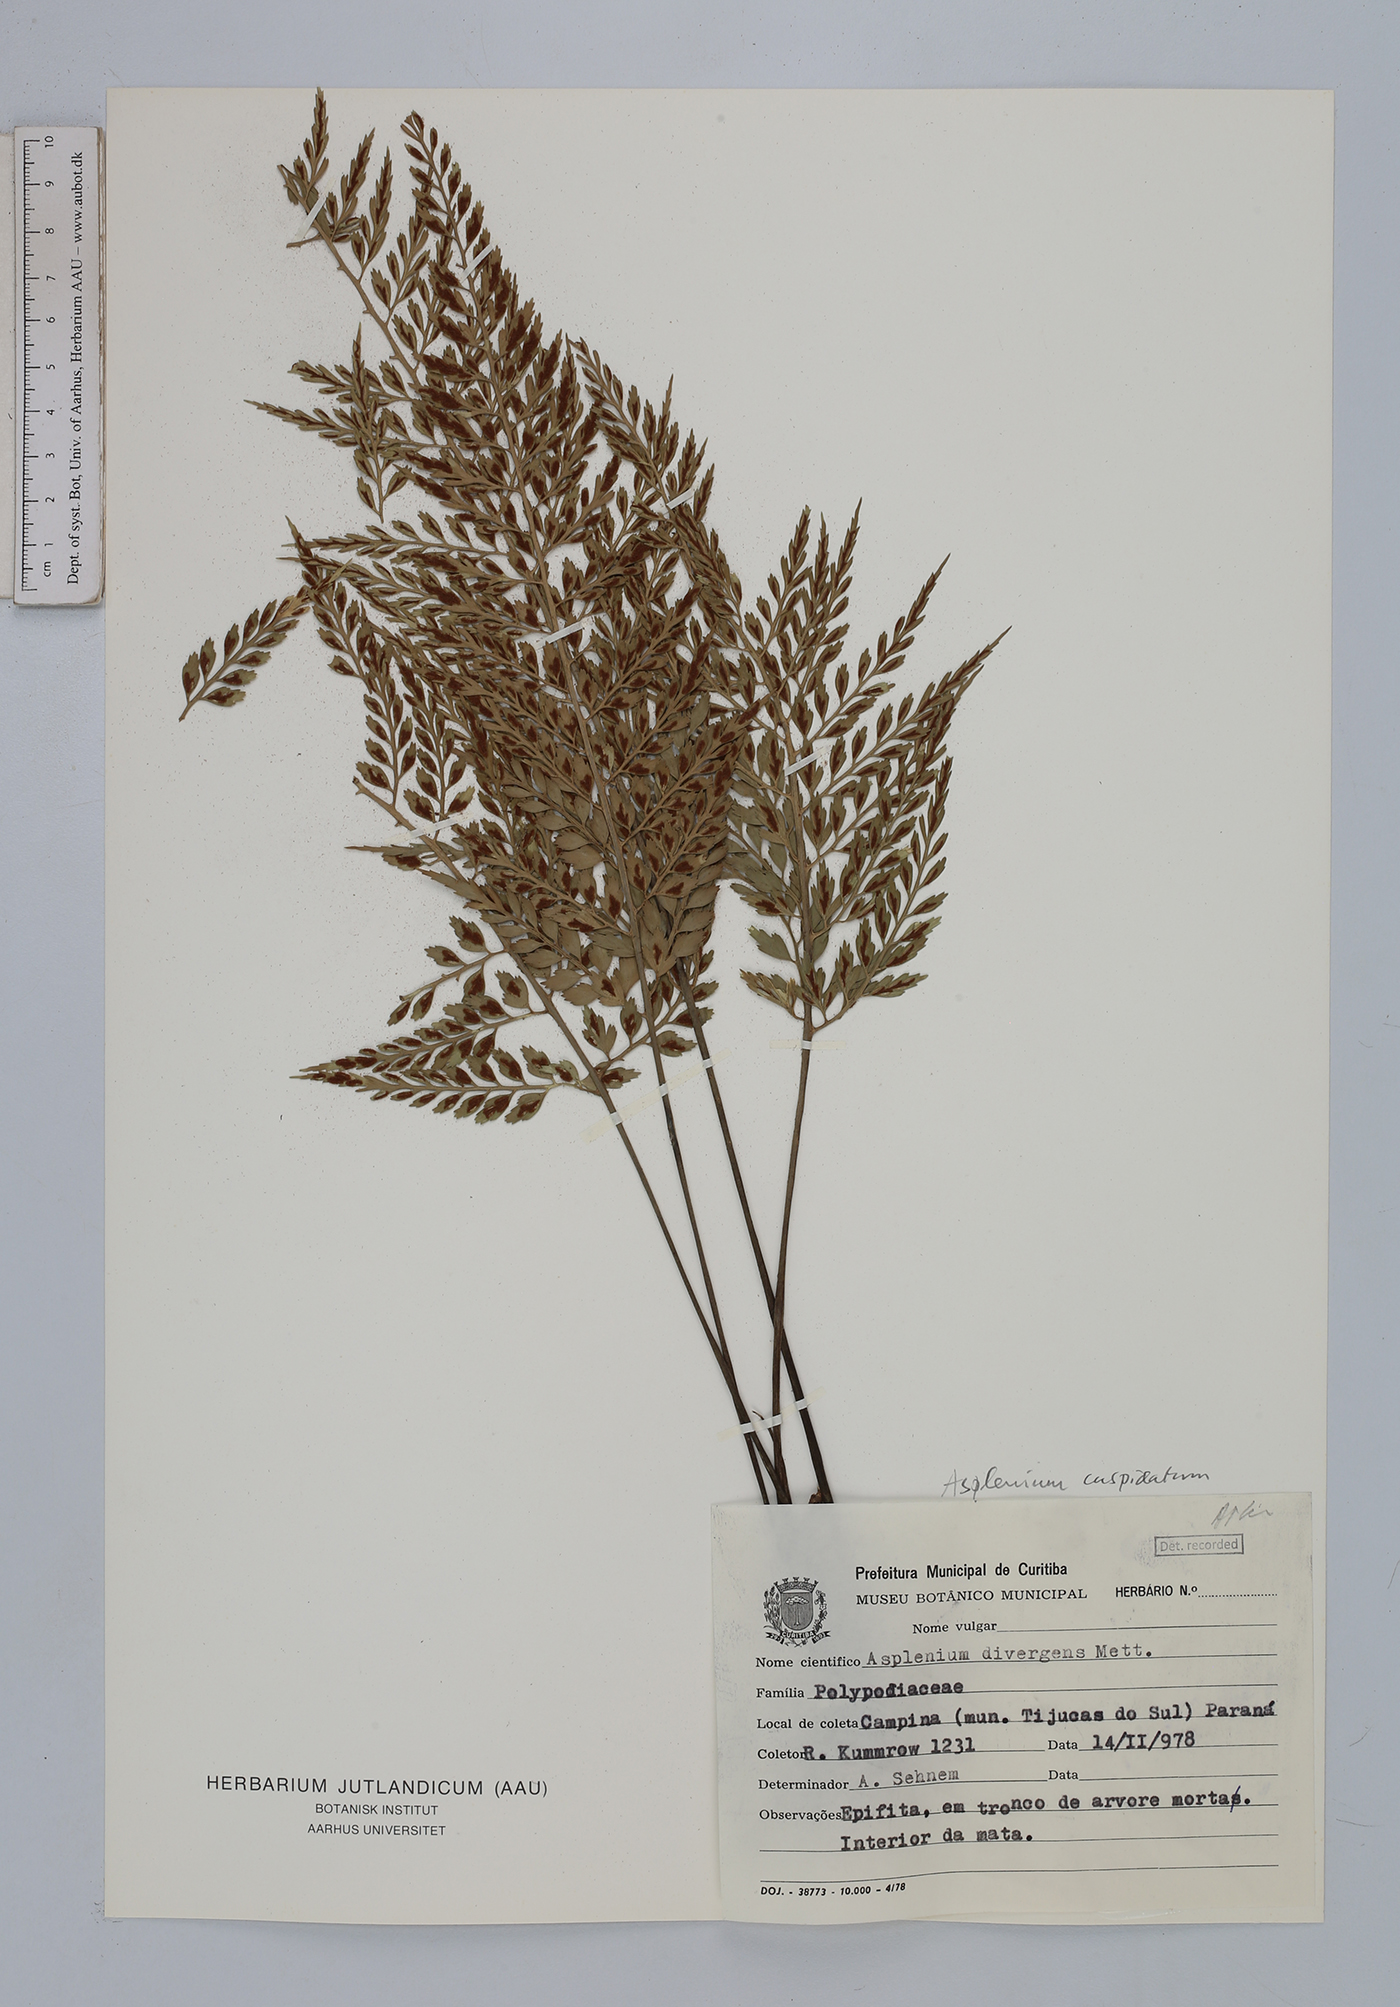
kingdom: Plantae
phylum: Tracheophyta
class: Polypodiopsida
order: Polypodiales
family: Aspleniaceae
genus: Asplenium
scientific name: Asplenium cuspidatum
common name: Eared spleenwort
